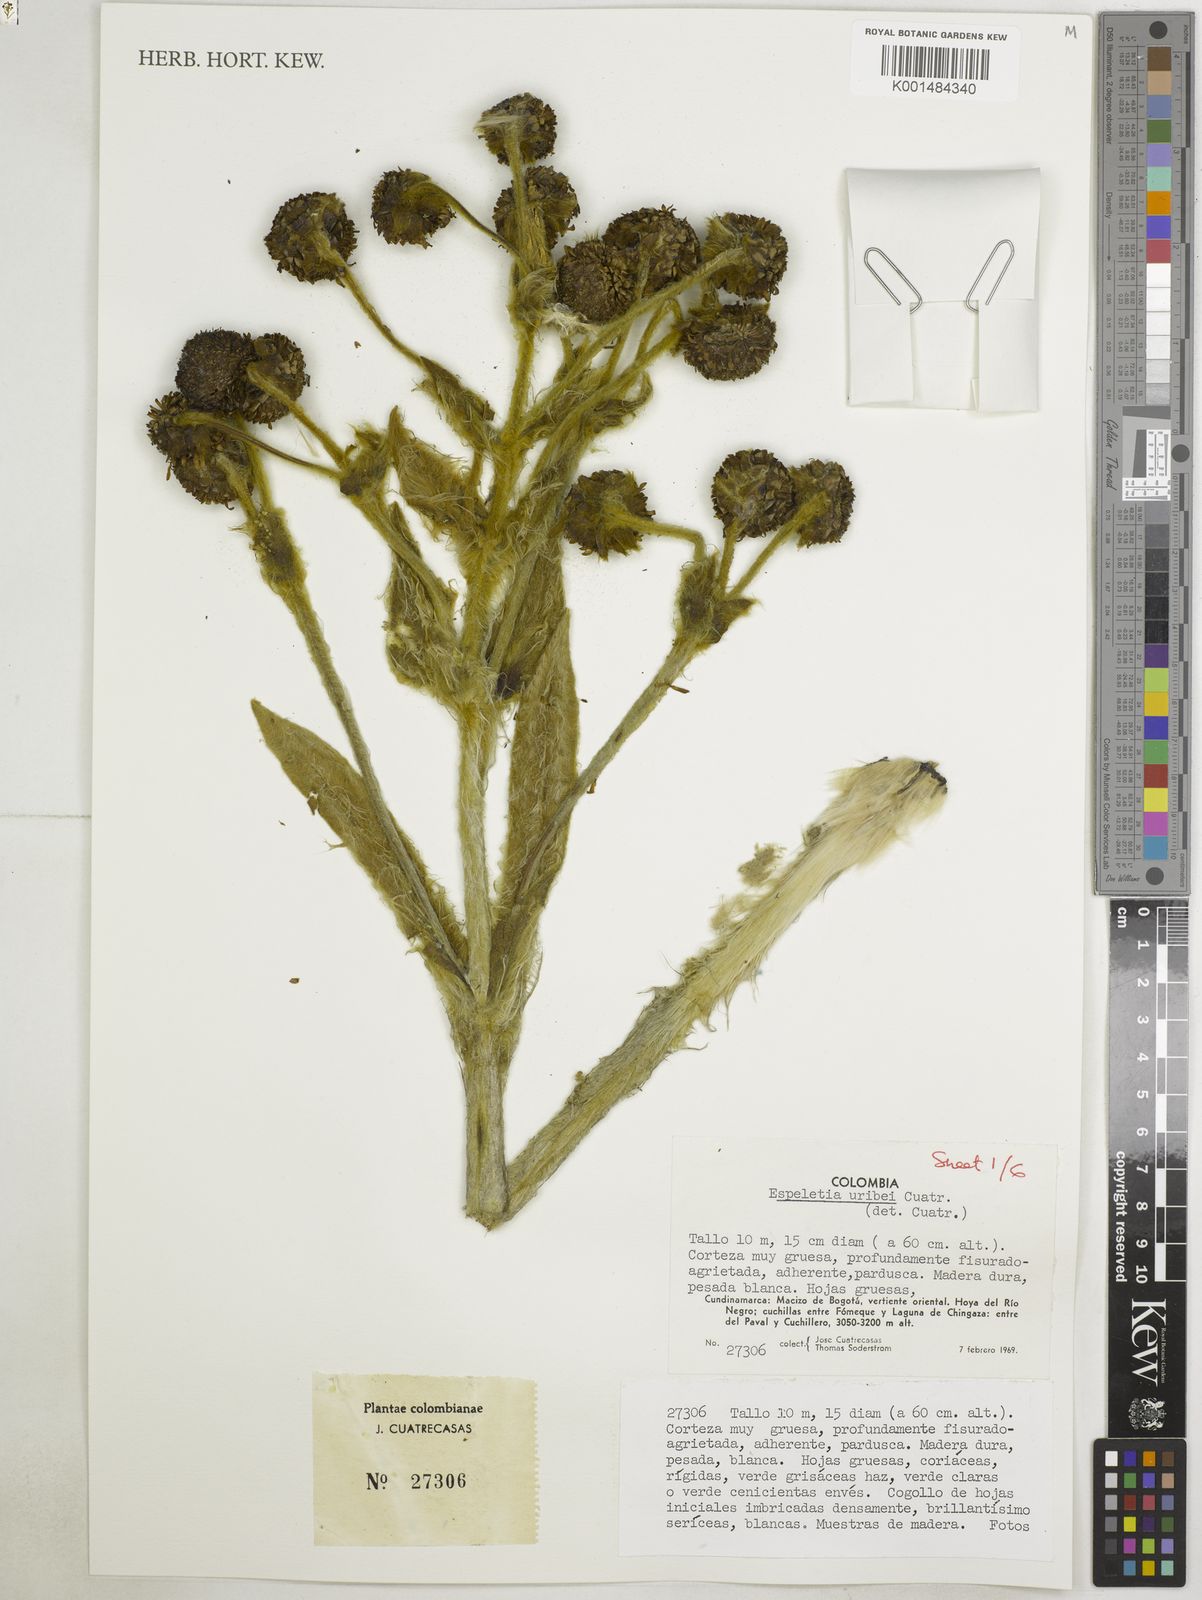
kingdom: Plantae
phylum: Tracheophyta
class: Magnoliopsida
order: Asterales
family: Asteraceae
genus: Espeletia
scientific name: Espeletia uribei
